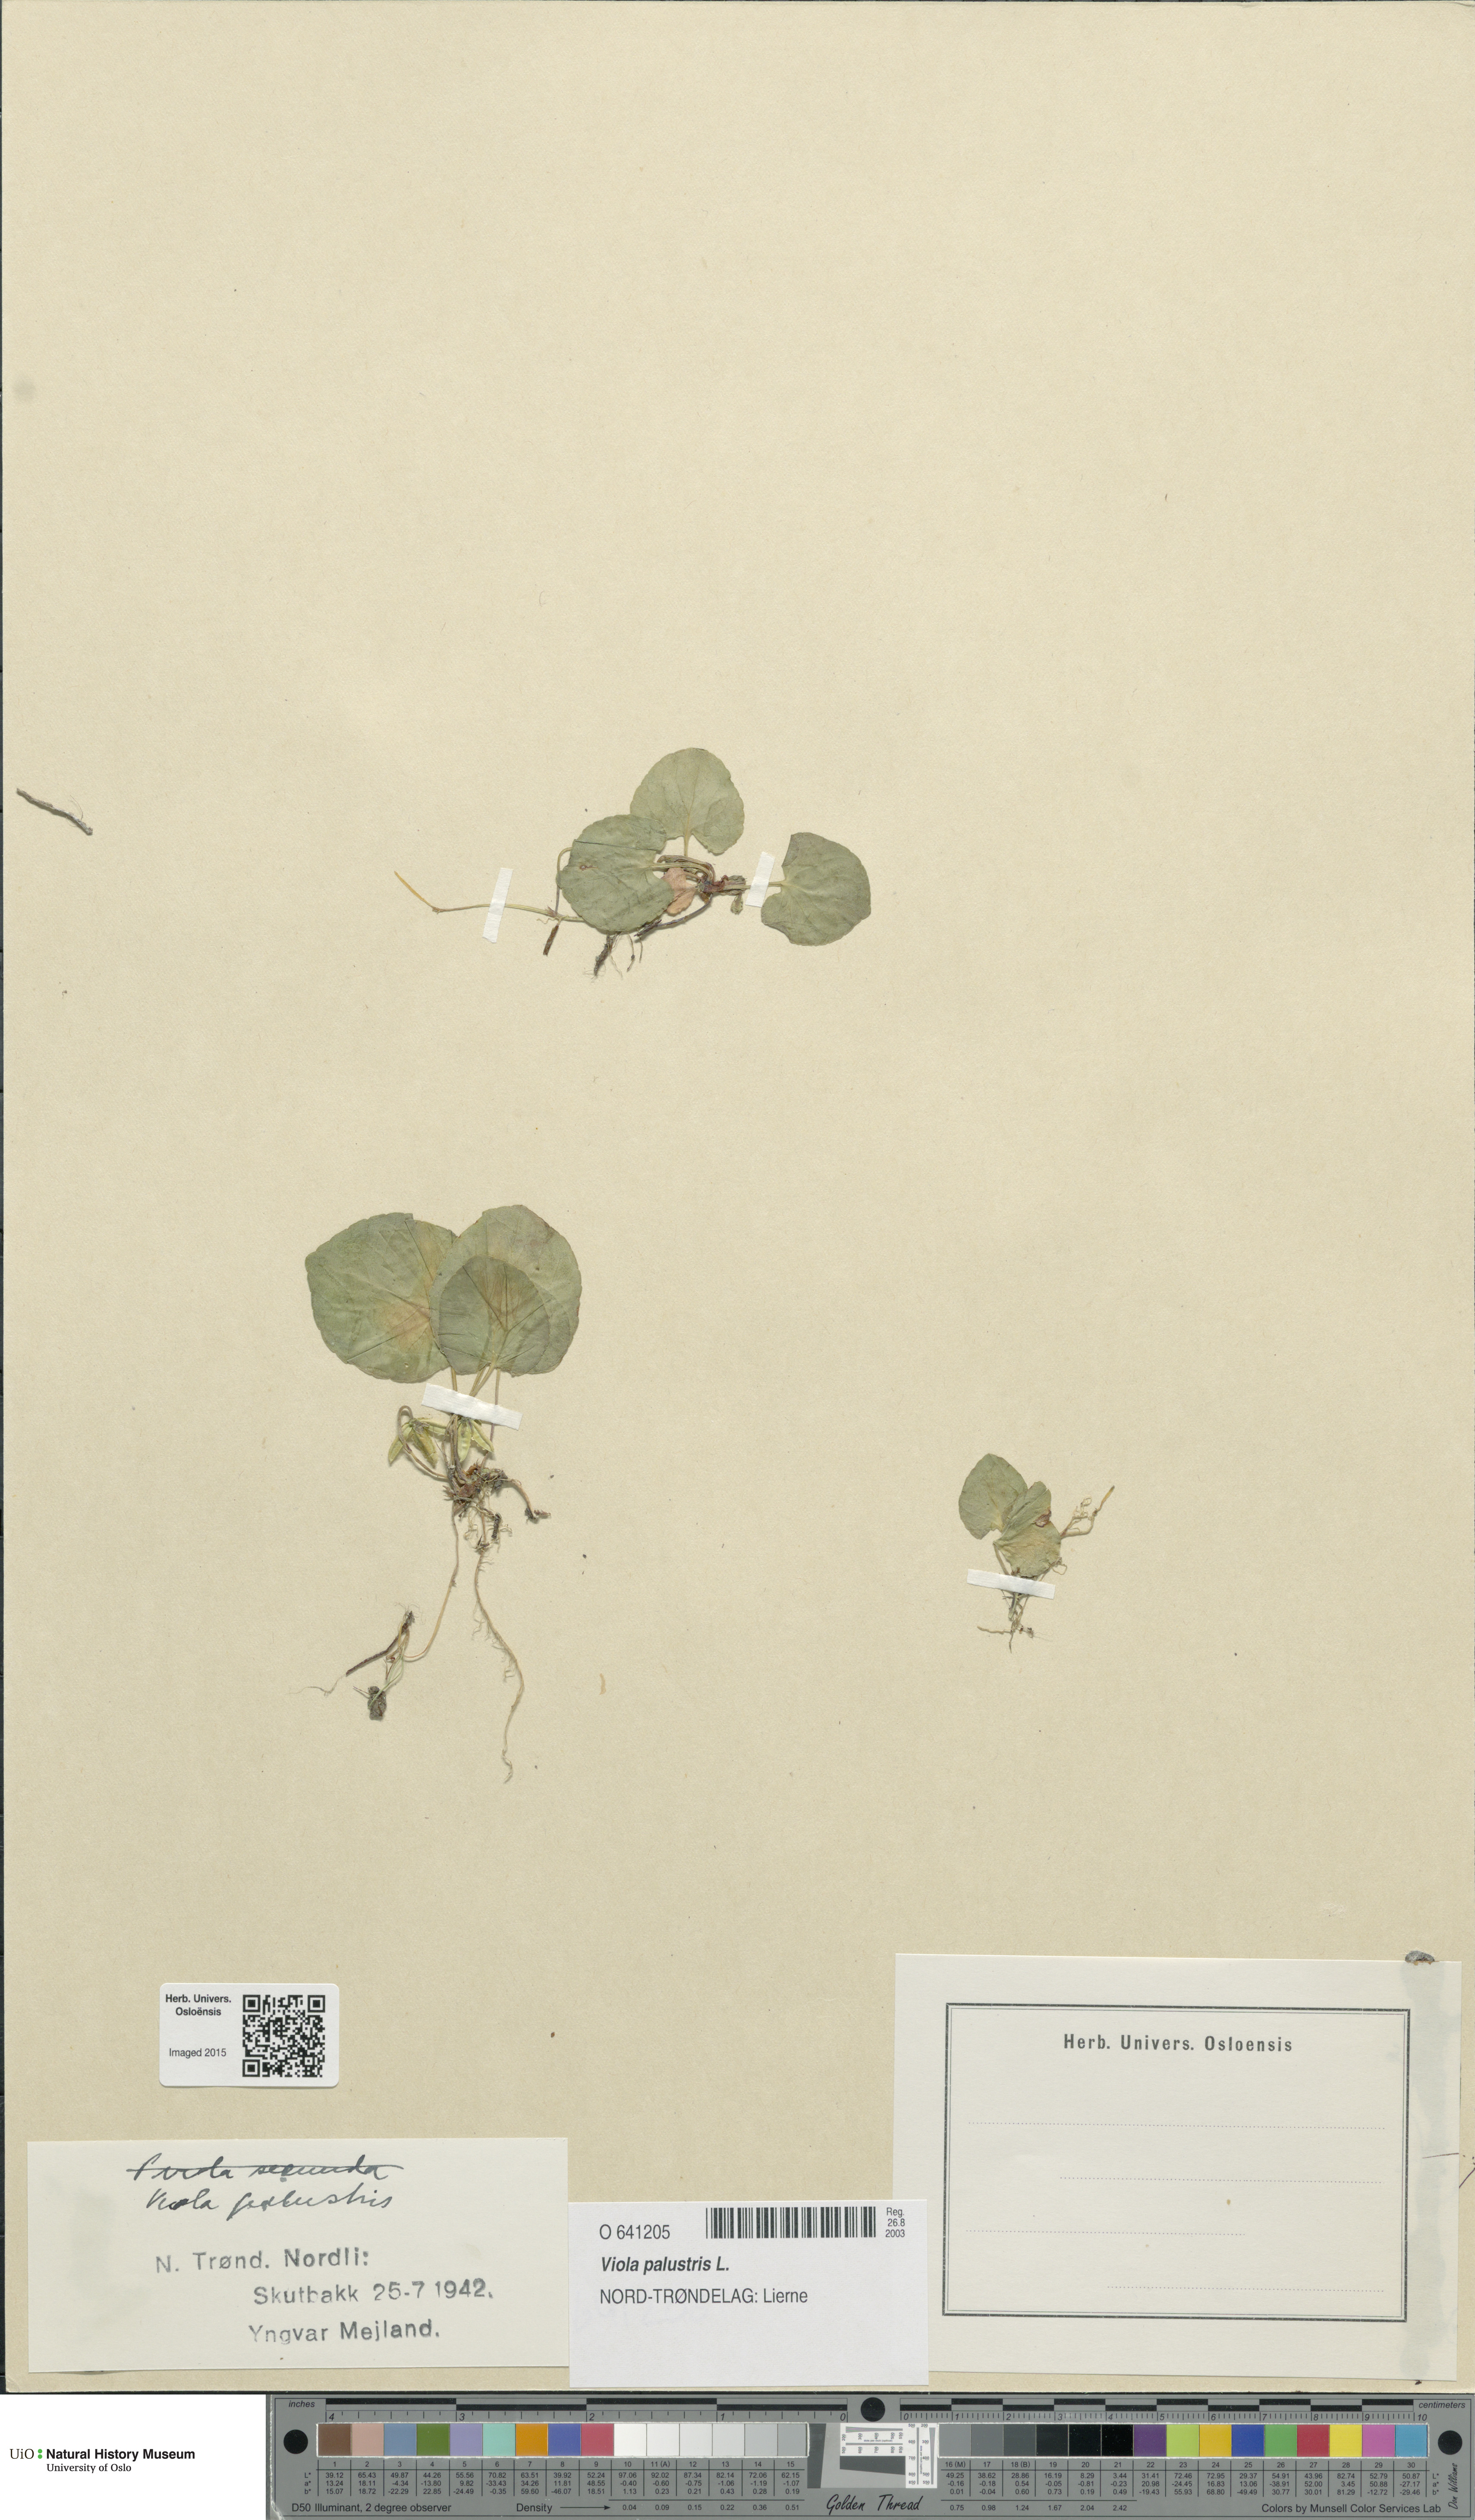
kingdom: Plantae
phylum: Tracheophyta
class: Magnoliopsida
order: Malpighiales
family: Violaceae
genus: Viola
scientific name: Viola palustris
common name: Marsh violet
